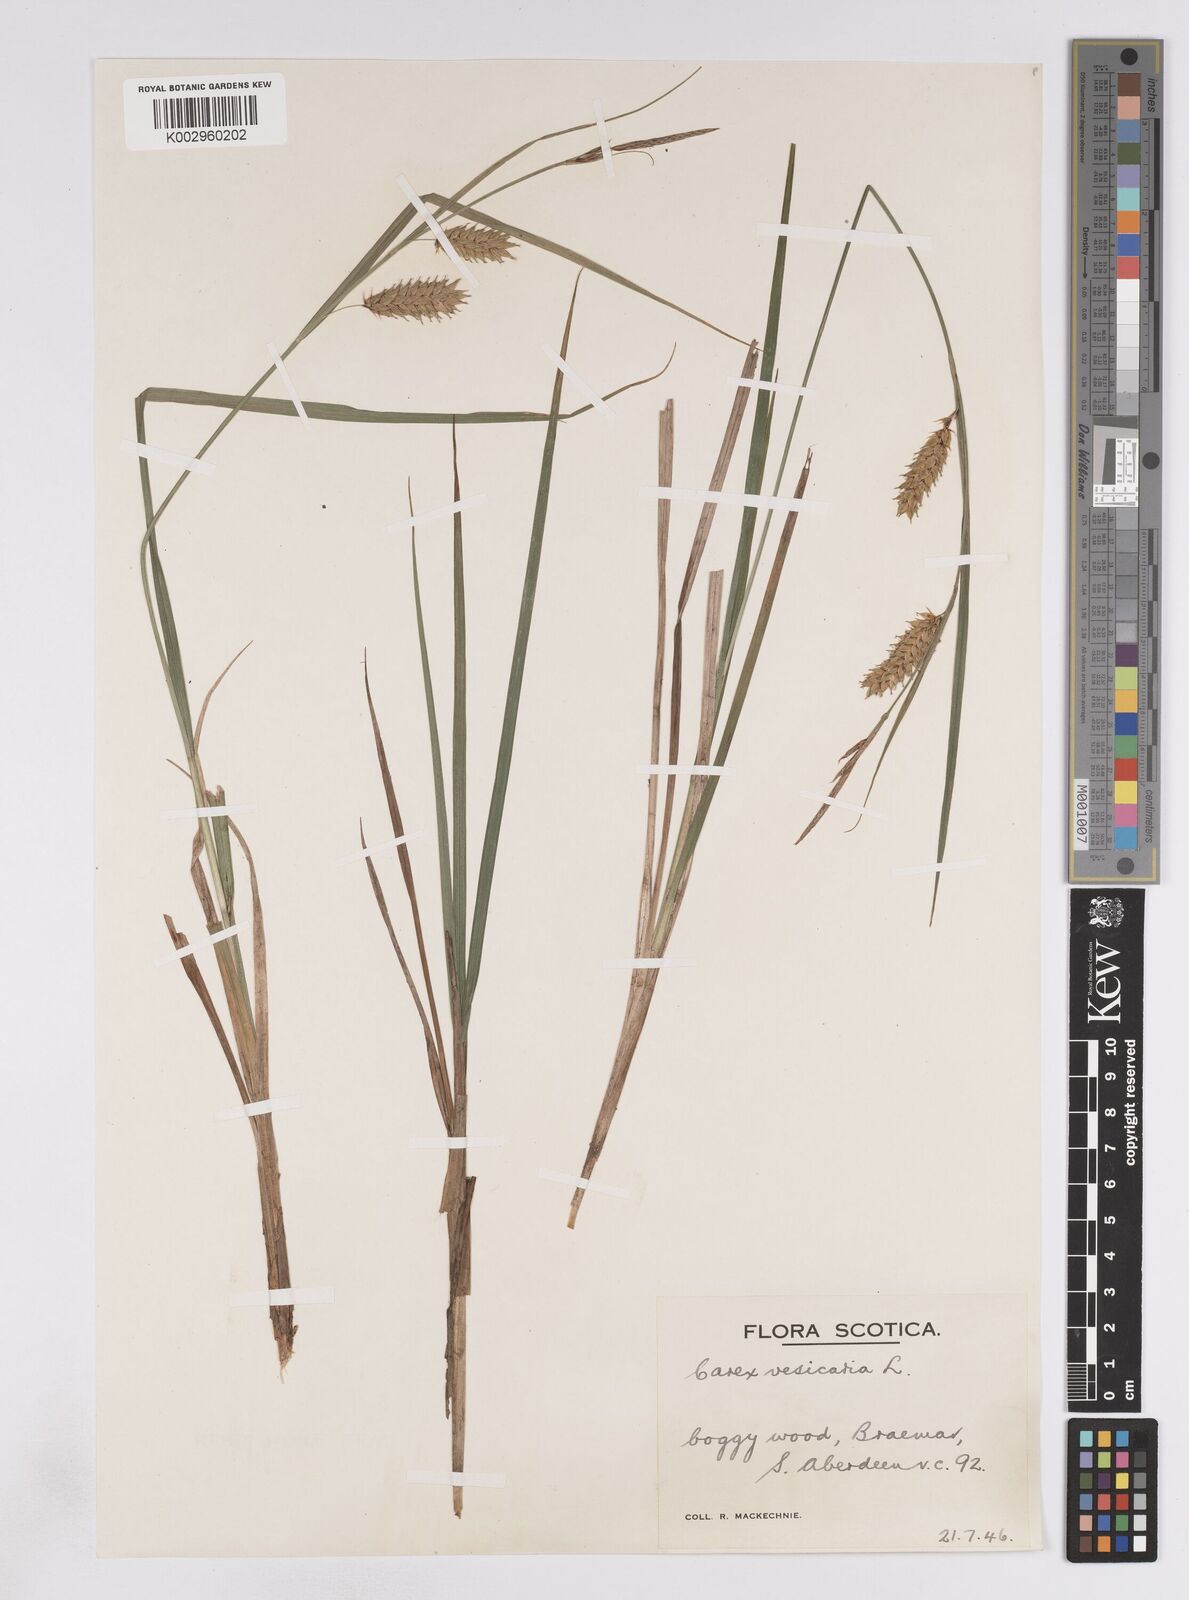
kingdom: Plantae
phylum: Tracheophyta
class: Liliopsida
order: Poales
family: Cyperaceae
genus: Carex
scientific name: Carex vesicaria
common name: Bladder-sedge
